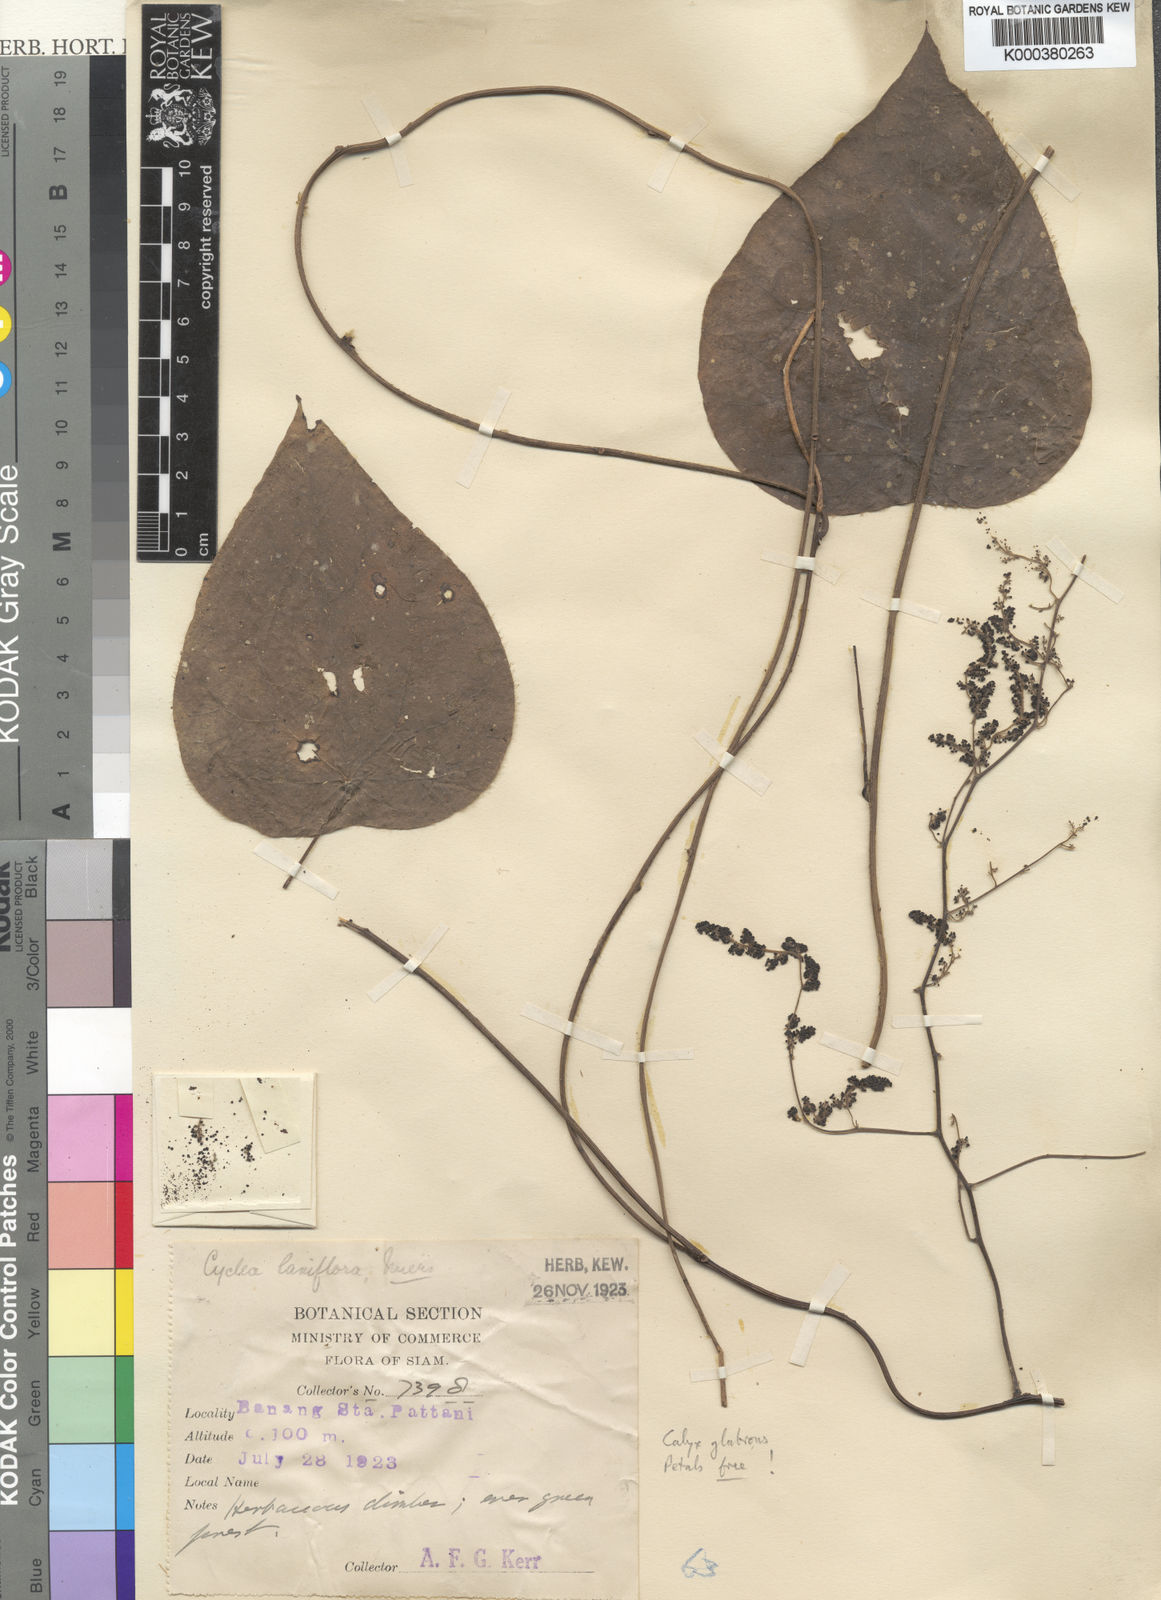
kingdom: Plantae
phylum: Tracheophyta
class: Magnoliopsida
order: Ranunculales
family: Menispermaceae
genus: Cyclea
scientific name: Cyclea laxiflora
